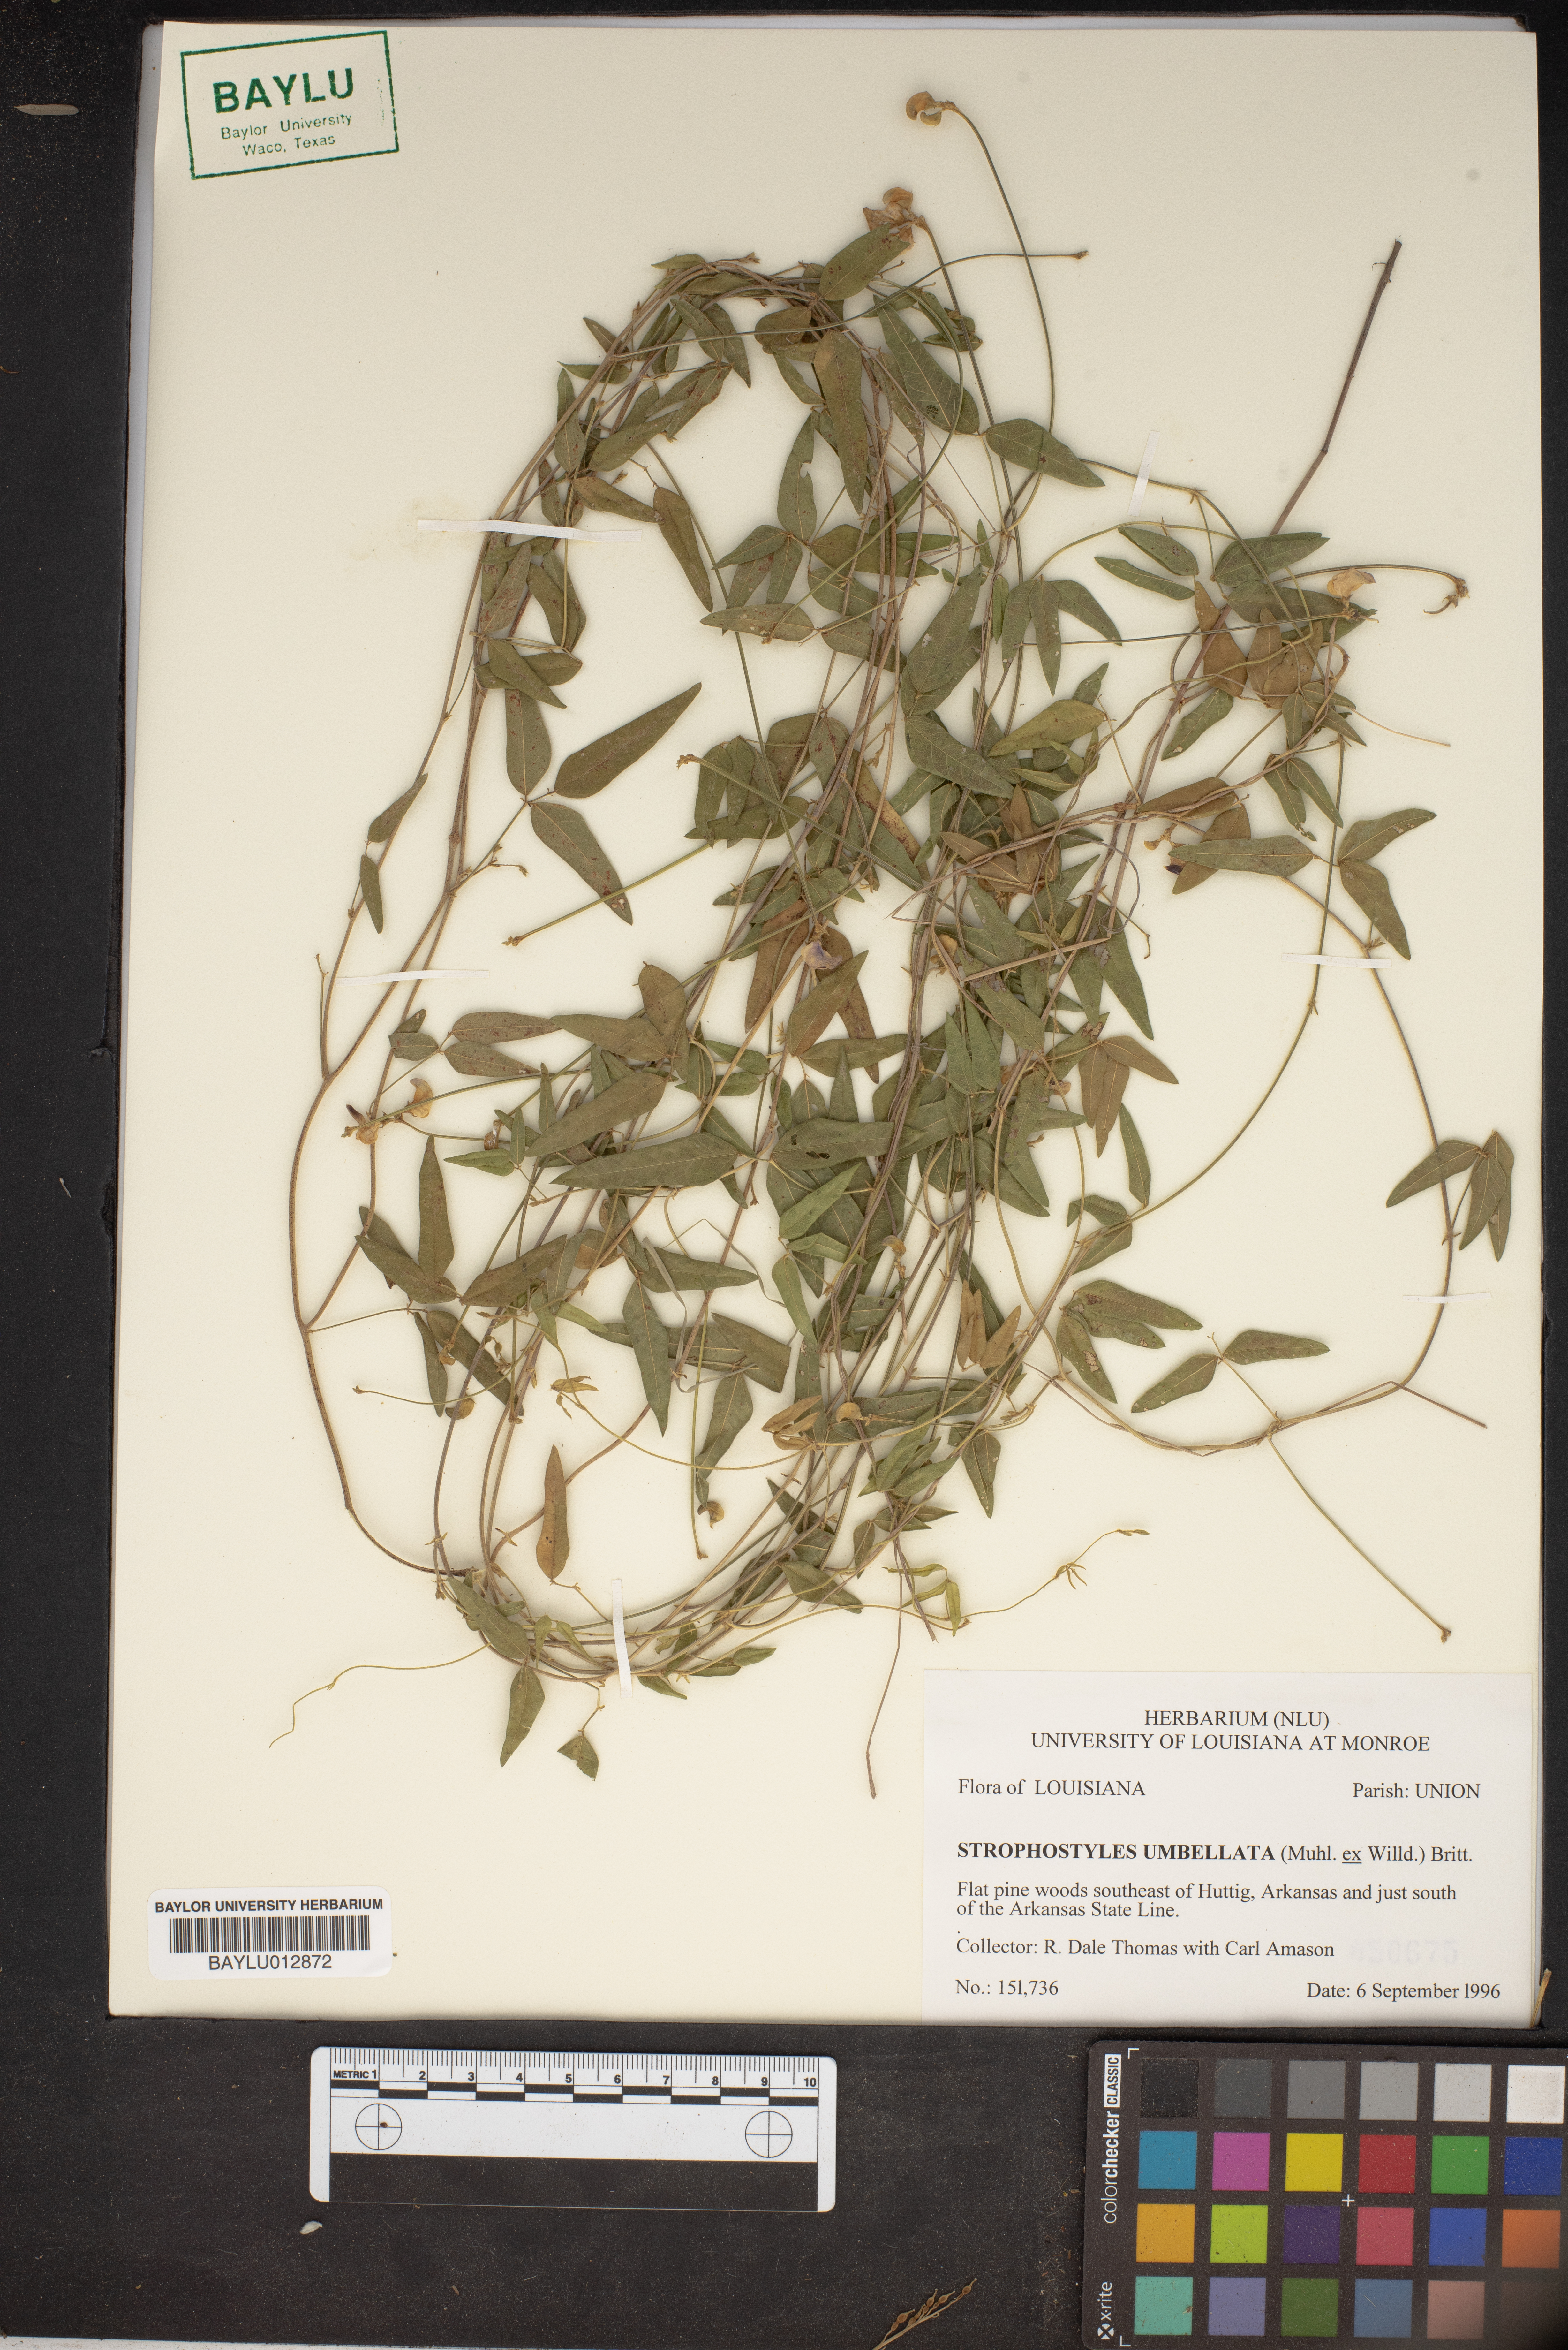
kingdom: Plantae
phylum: Tracheophyta
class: Magnoliopsida
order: Fabales
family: Fabaceae
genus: Strophostyles
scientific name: Strophostyles umbellata
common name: Perennial wild bean
